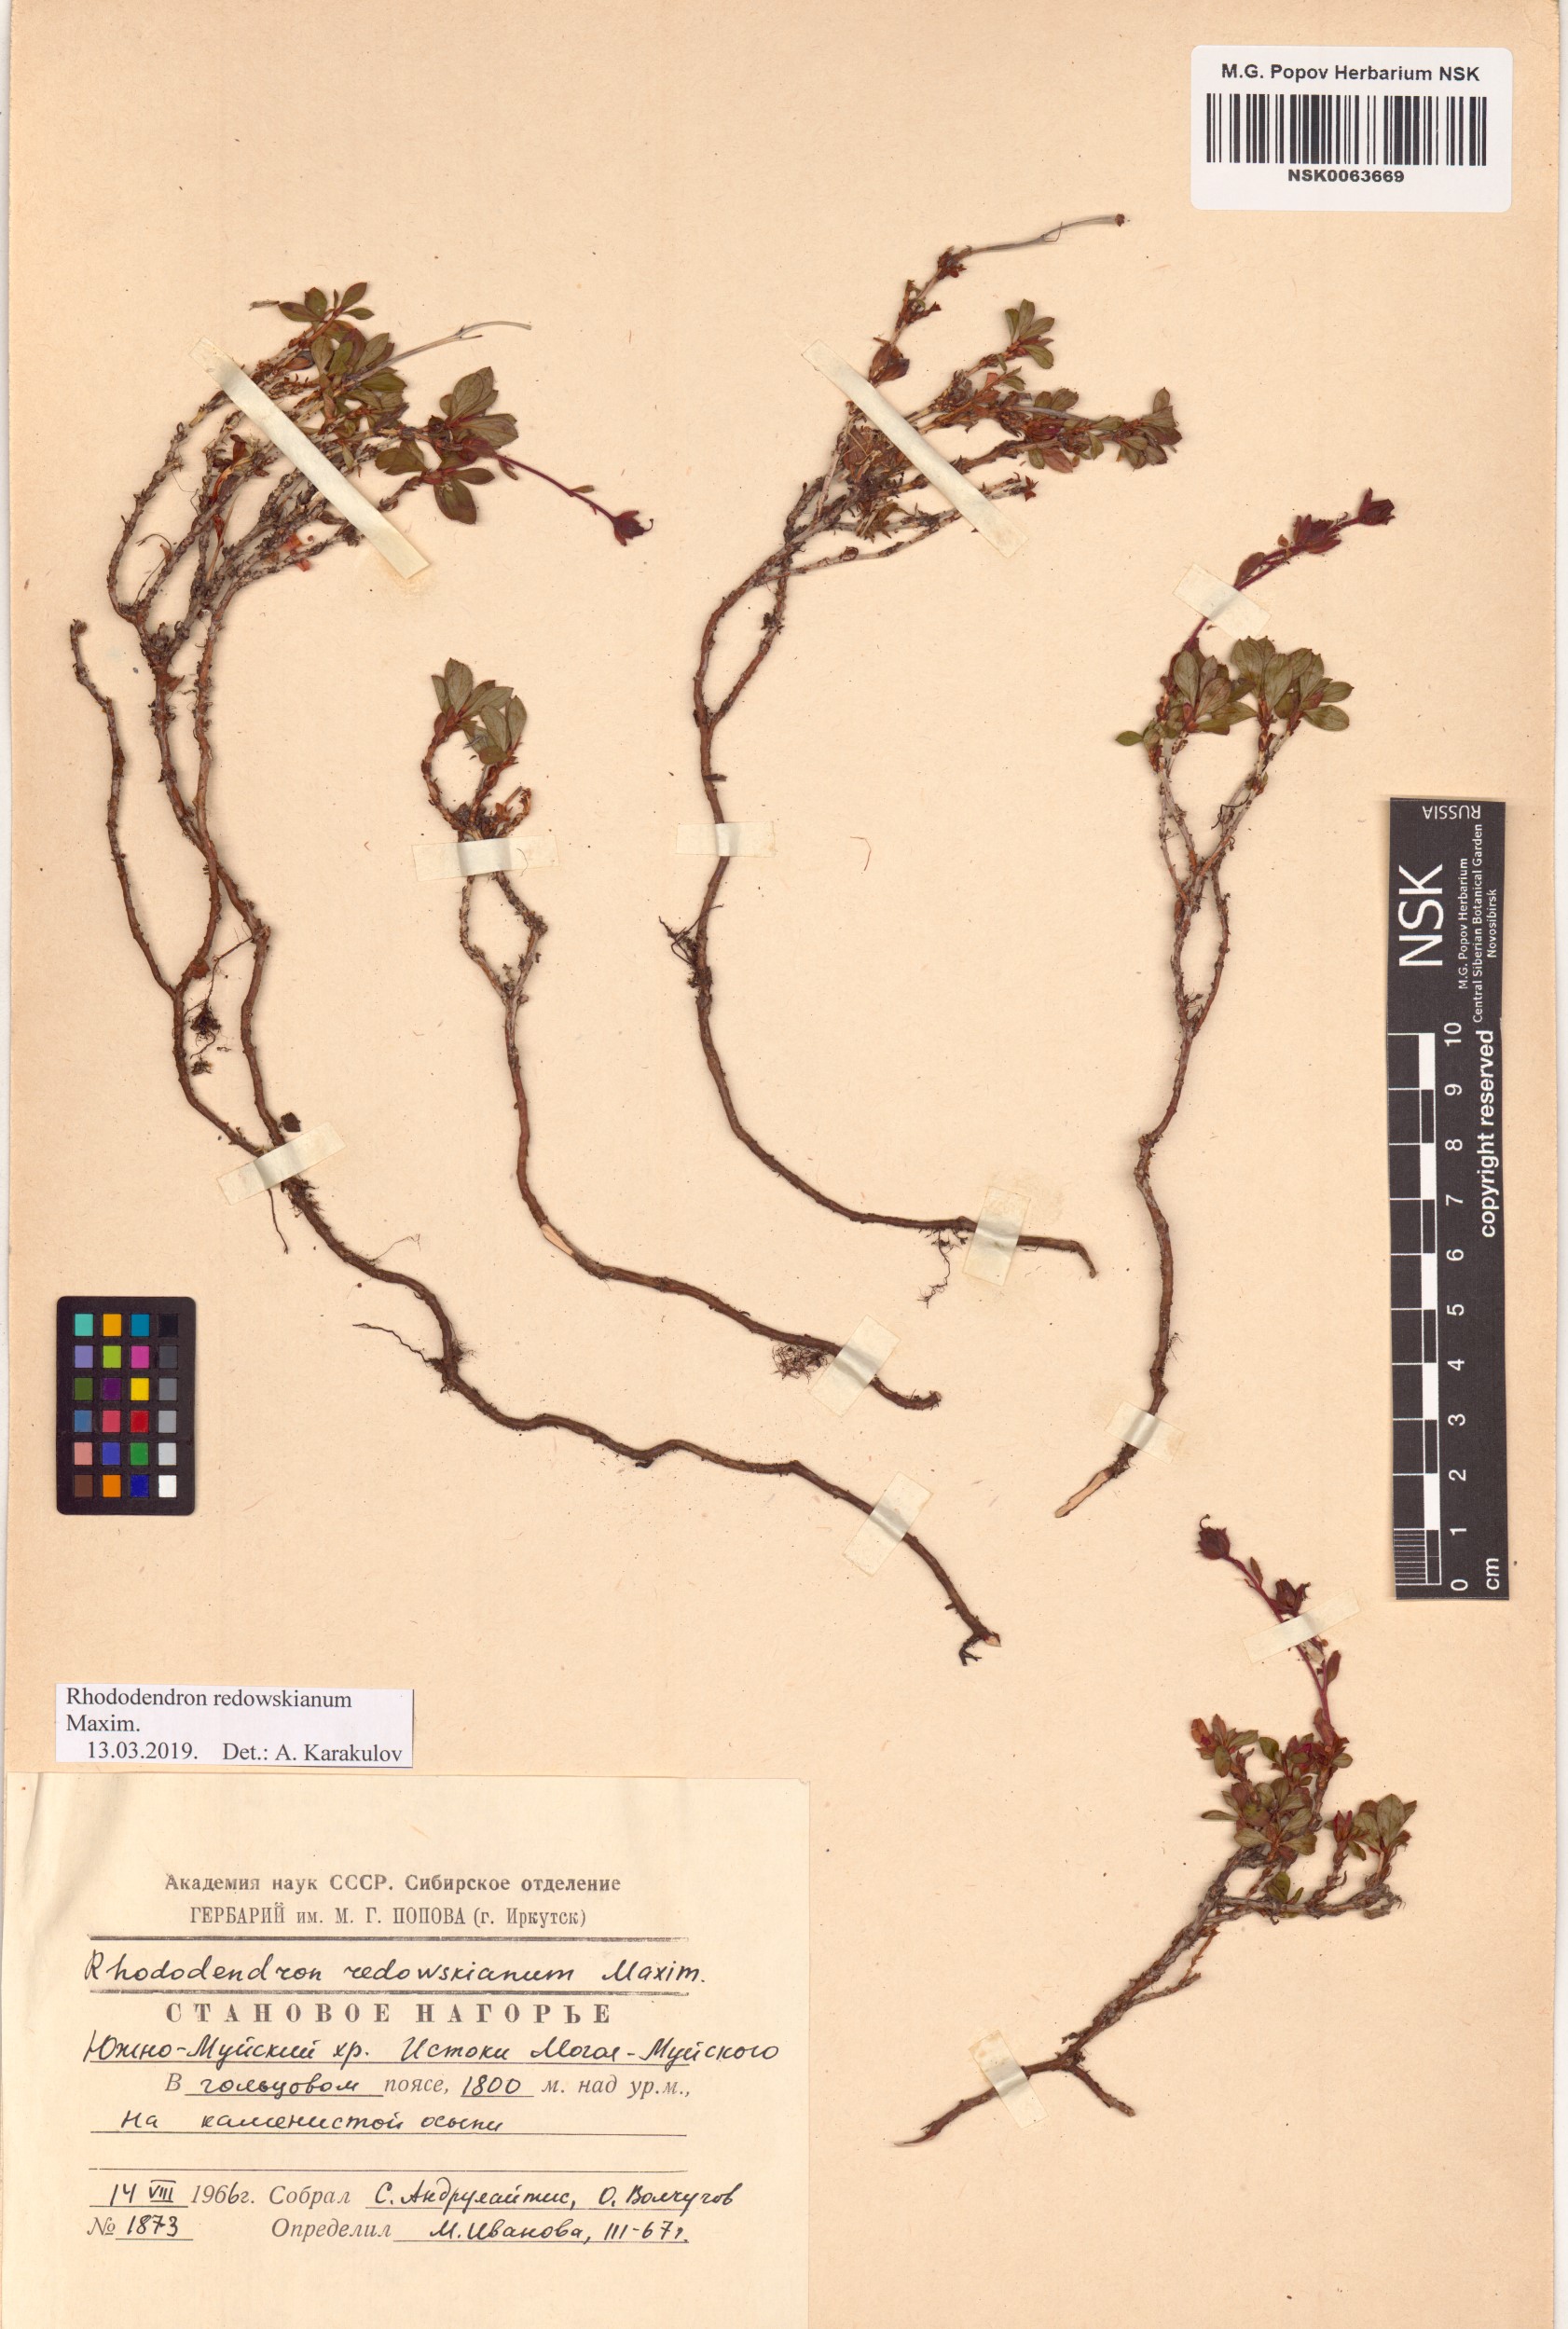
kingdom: Plantae
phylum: Tracheophyta
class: Magnoliopsida
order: Ericales
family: Ericaceae
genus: Rhododendron
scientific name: Rhododendron redowskianum
